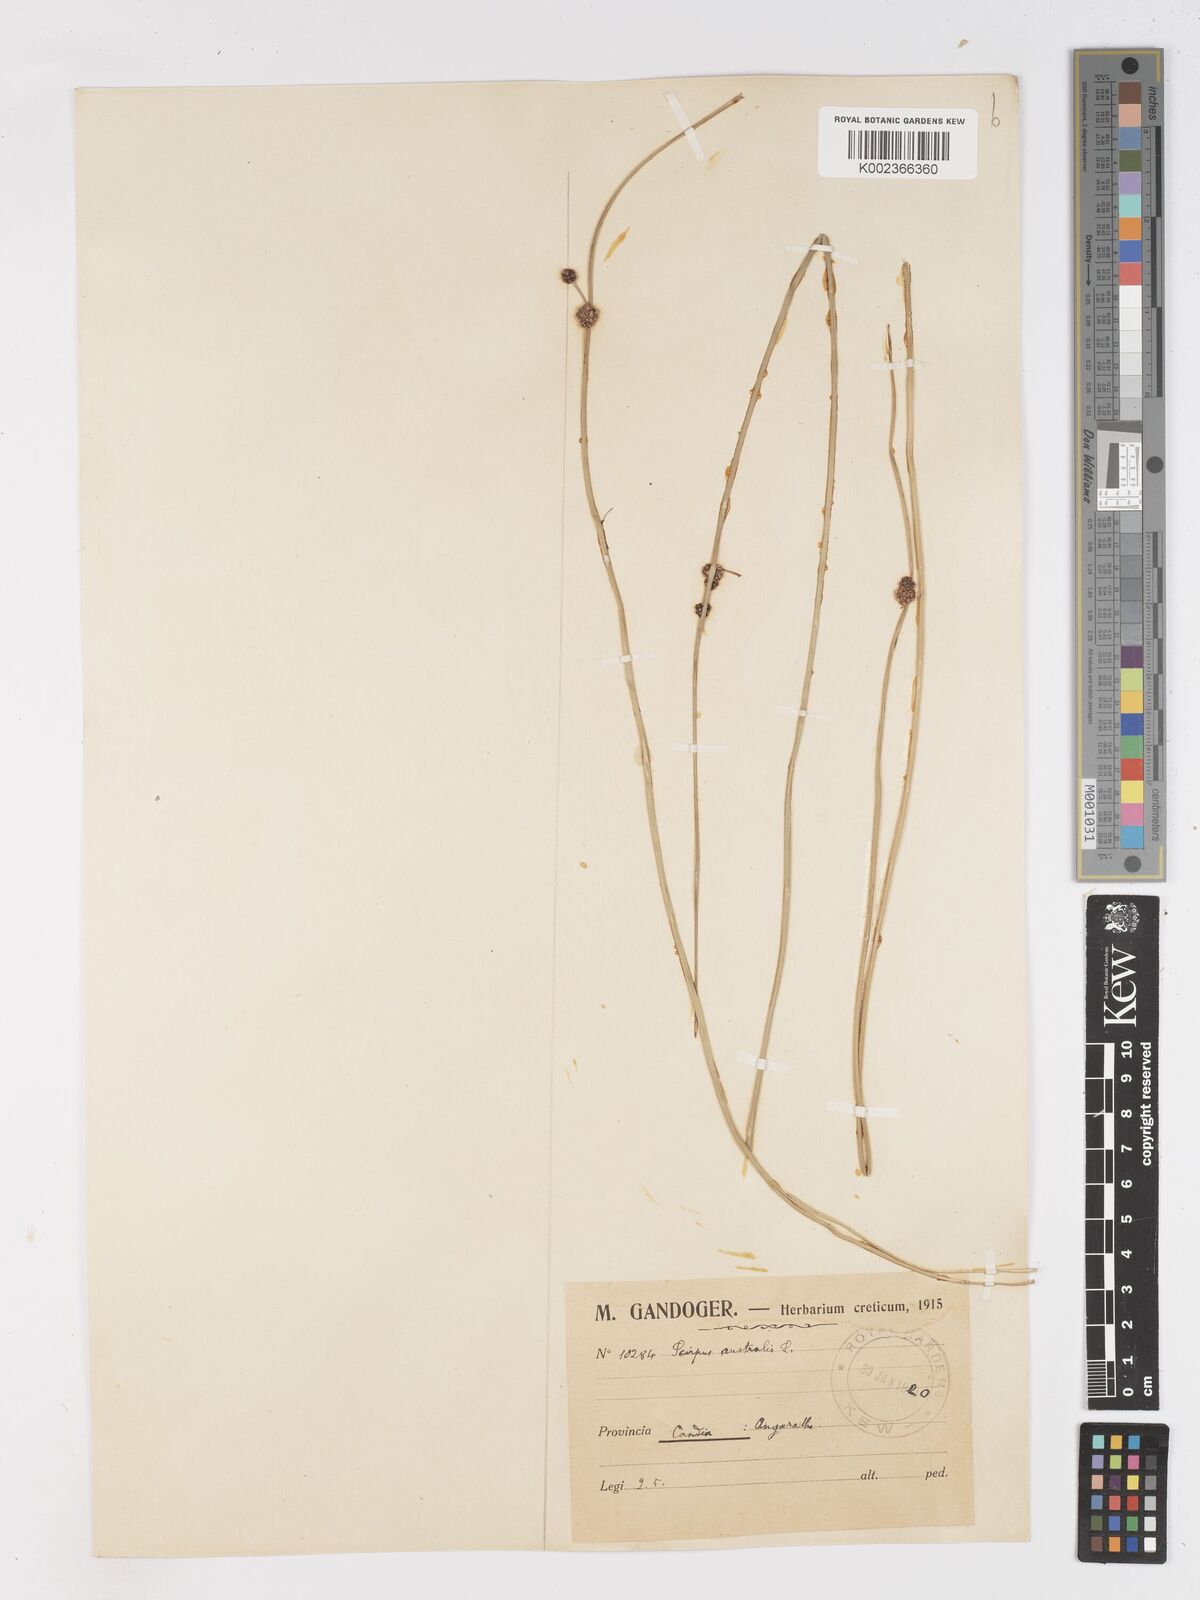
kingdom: Plantae
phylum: Tracheophyta
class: Liliopsida
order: Poales
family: Cyperaceae
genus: Scirpoides
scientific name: Scirpoides holoschoenus
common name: Round-headed club-rush
